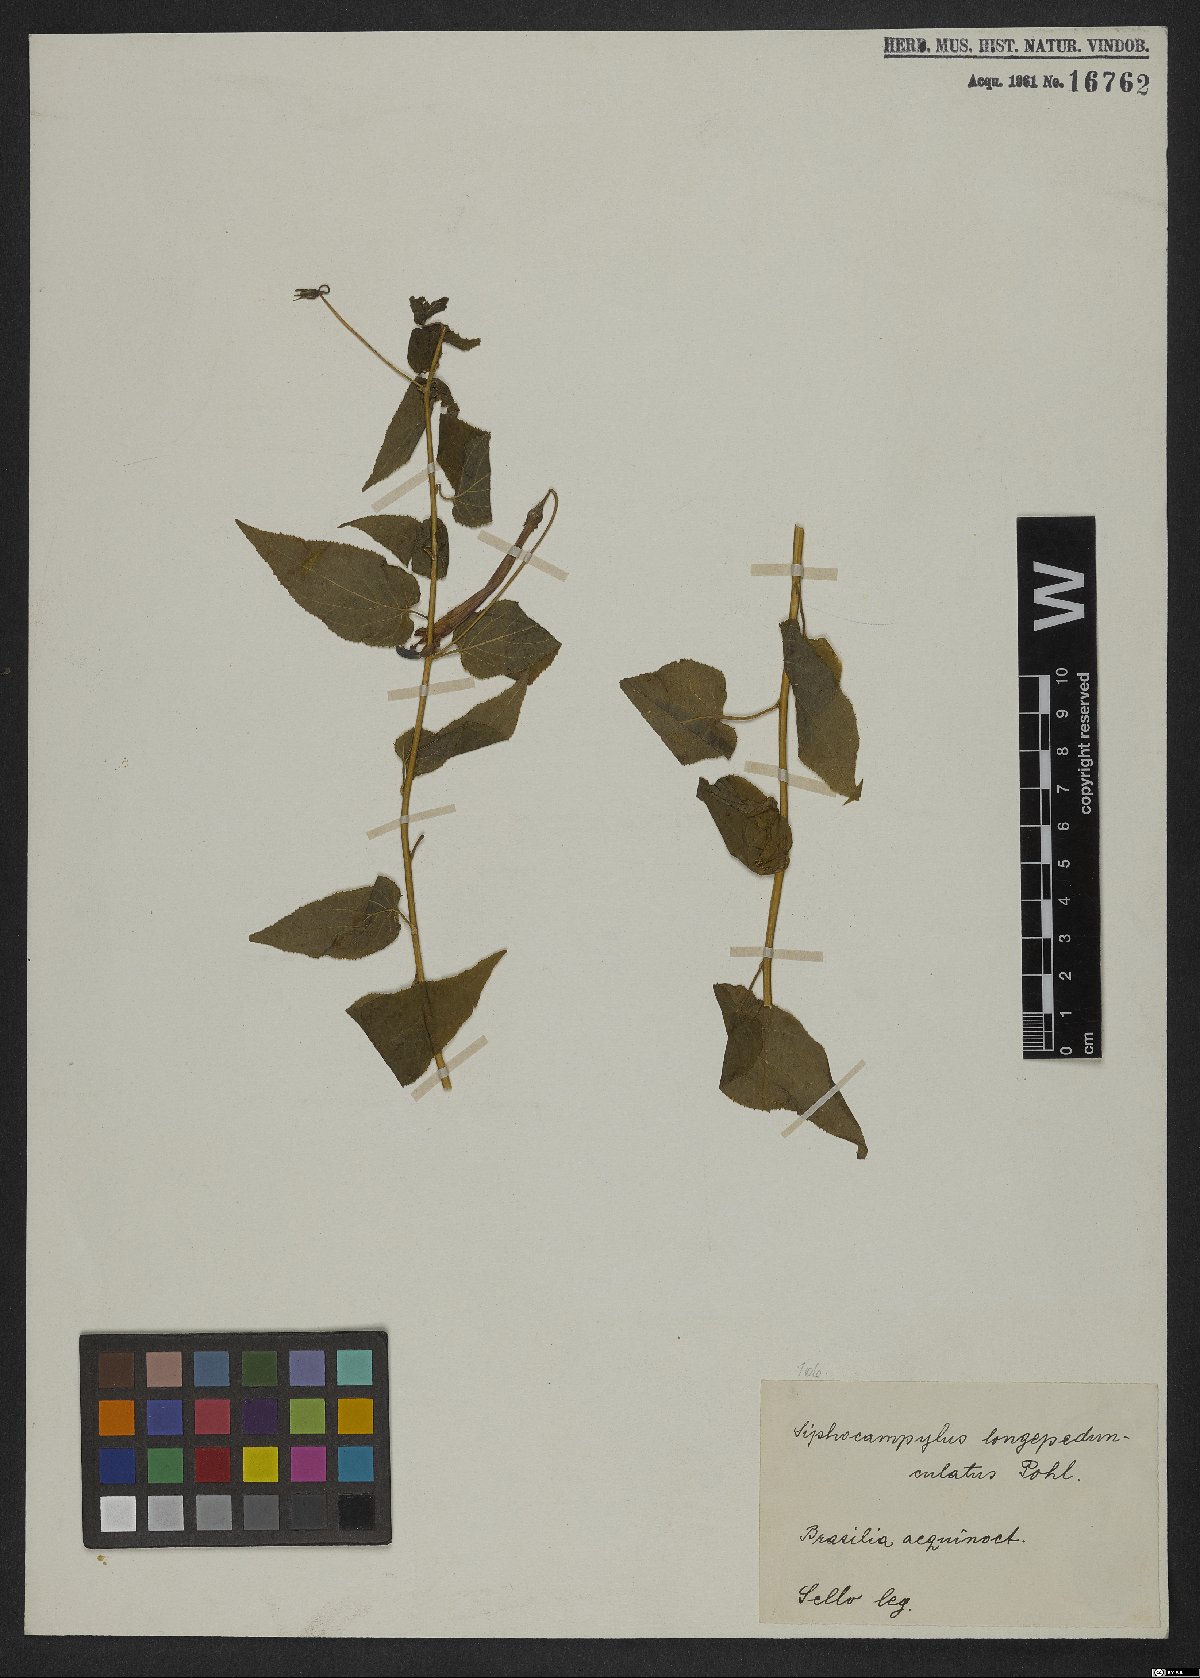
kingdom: Plantae
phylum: Tracheophyta
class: Magnoliopsida
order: Asterales
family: Campanulaceae
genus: Siphocampylus
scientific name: Siphocampylus longipedunculatus
